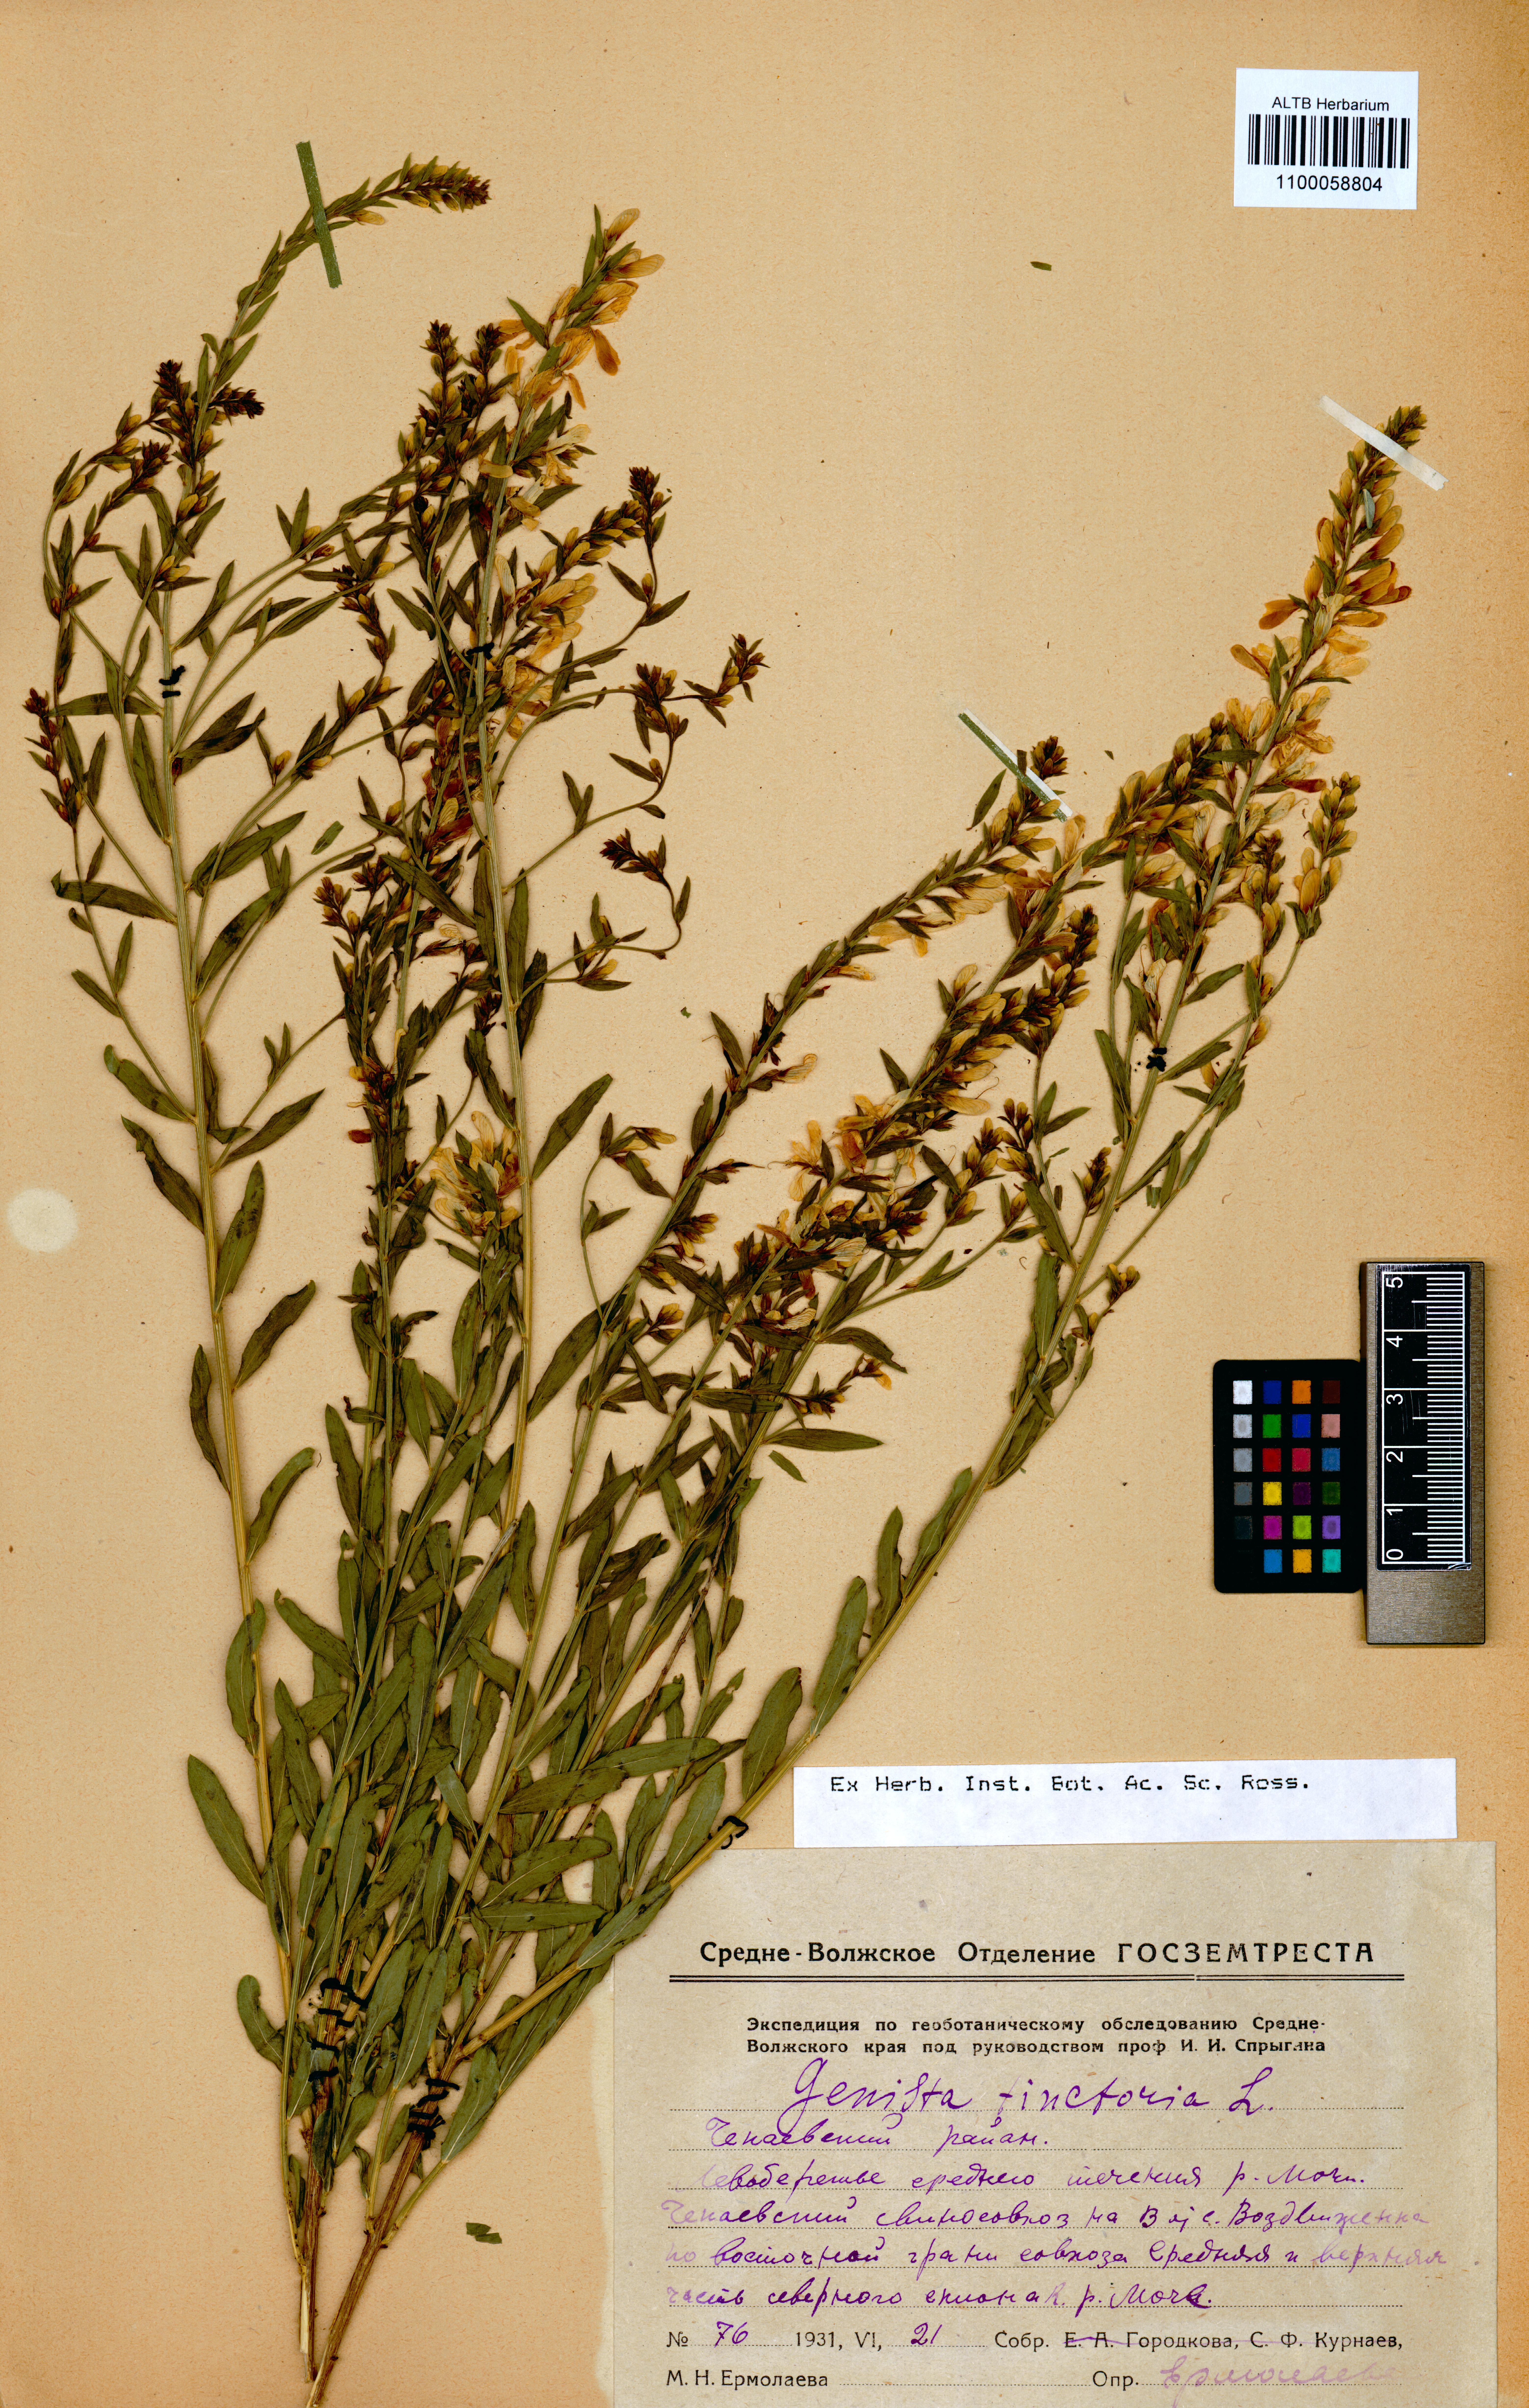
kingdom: Plantae
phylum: Tracheophyta
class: Magnoliopsida
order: Fabales
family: Fabaceae
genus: Genista
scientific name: Genista tinctoria
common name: Dyer's greenweed
